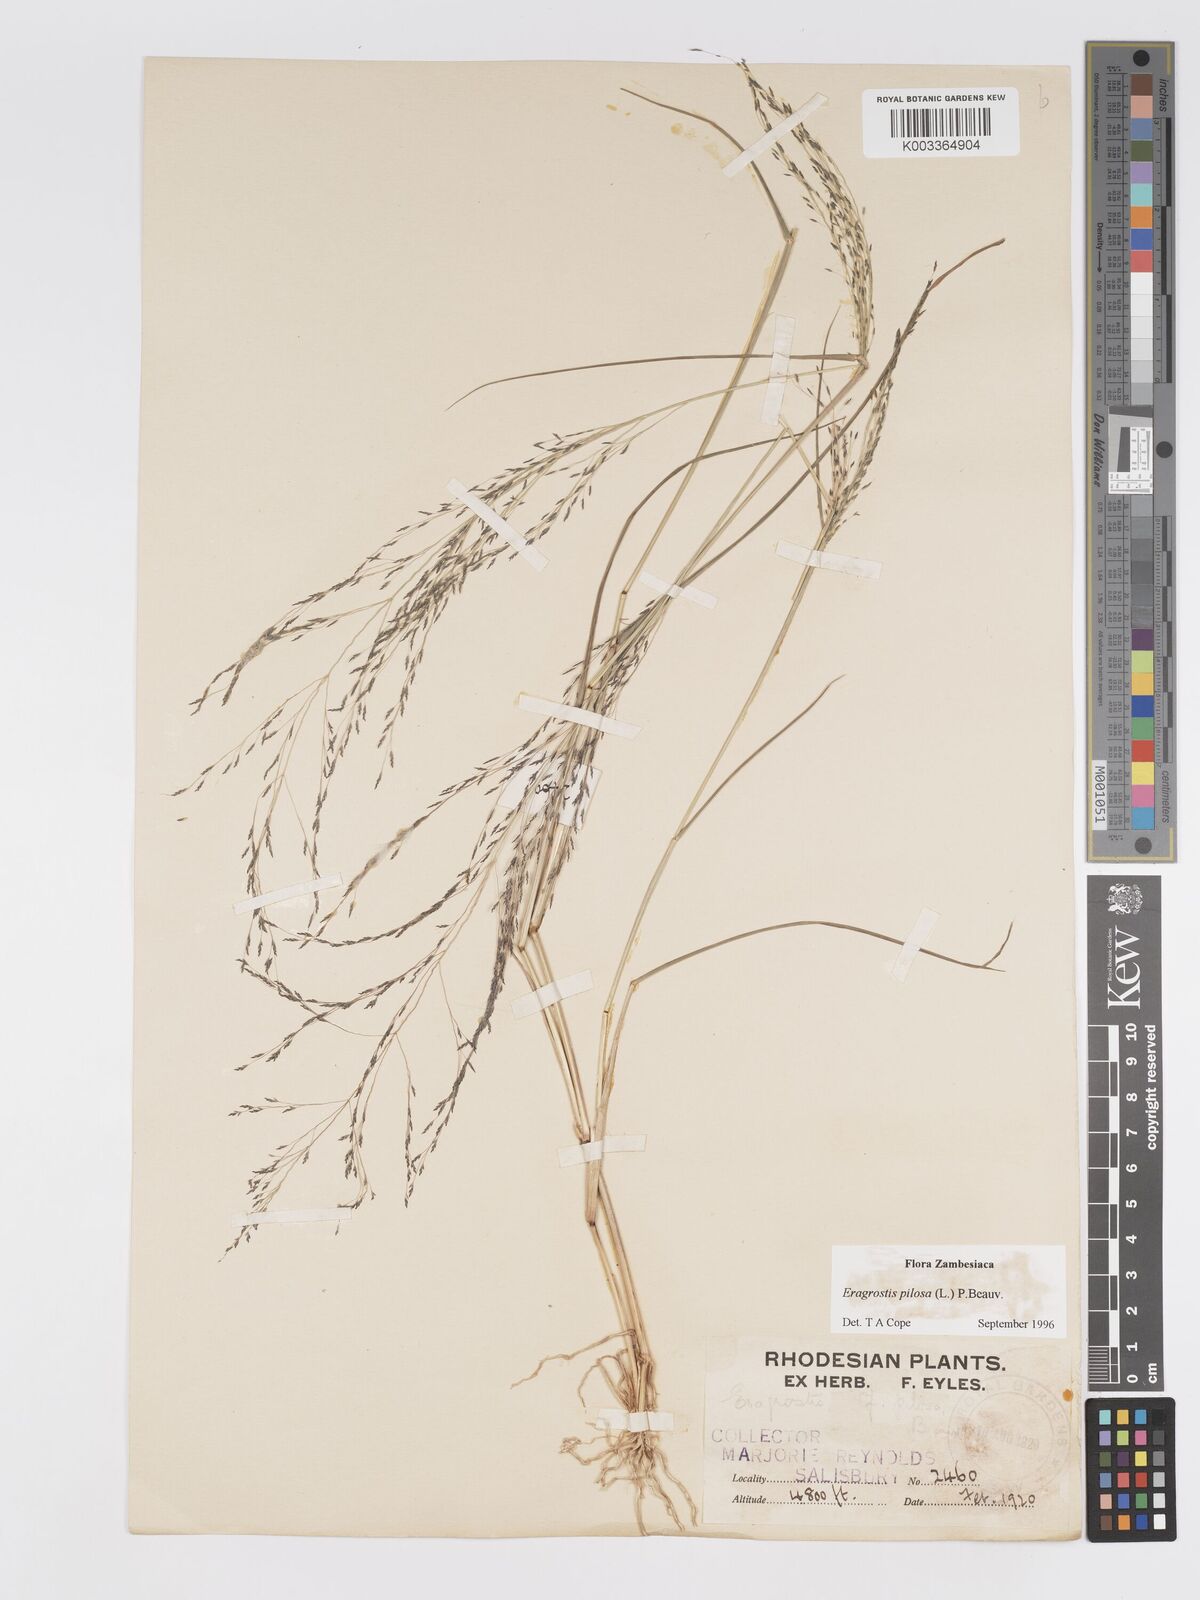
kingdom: Plantae
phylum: Tracheophyta
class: Liliopsida
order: Poales
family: Poaceae
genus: Eragrostis
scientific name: Eragrostis pilosa
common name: Indian lovegrass
